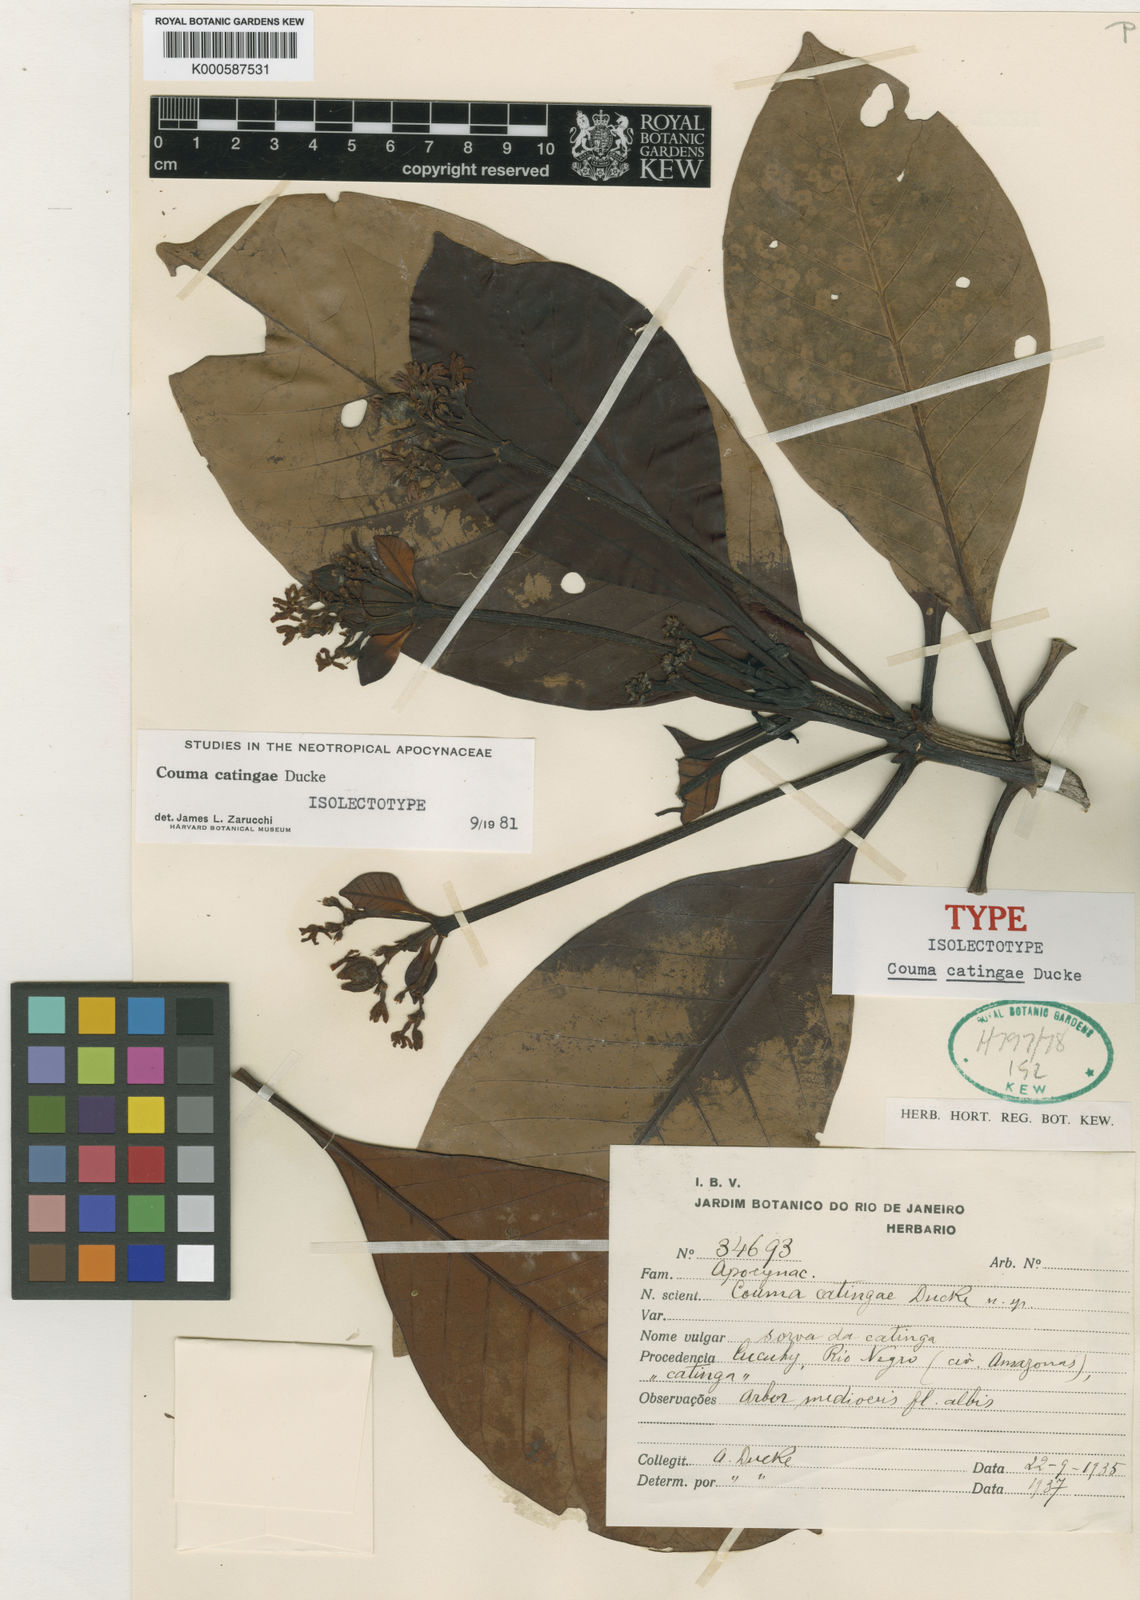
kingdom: Plantae
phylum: Tracheophyta
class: Magnoliopsida
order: Gentianales
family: Apocynaceae
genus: Couma
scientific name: Couma catingae
